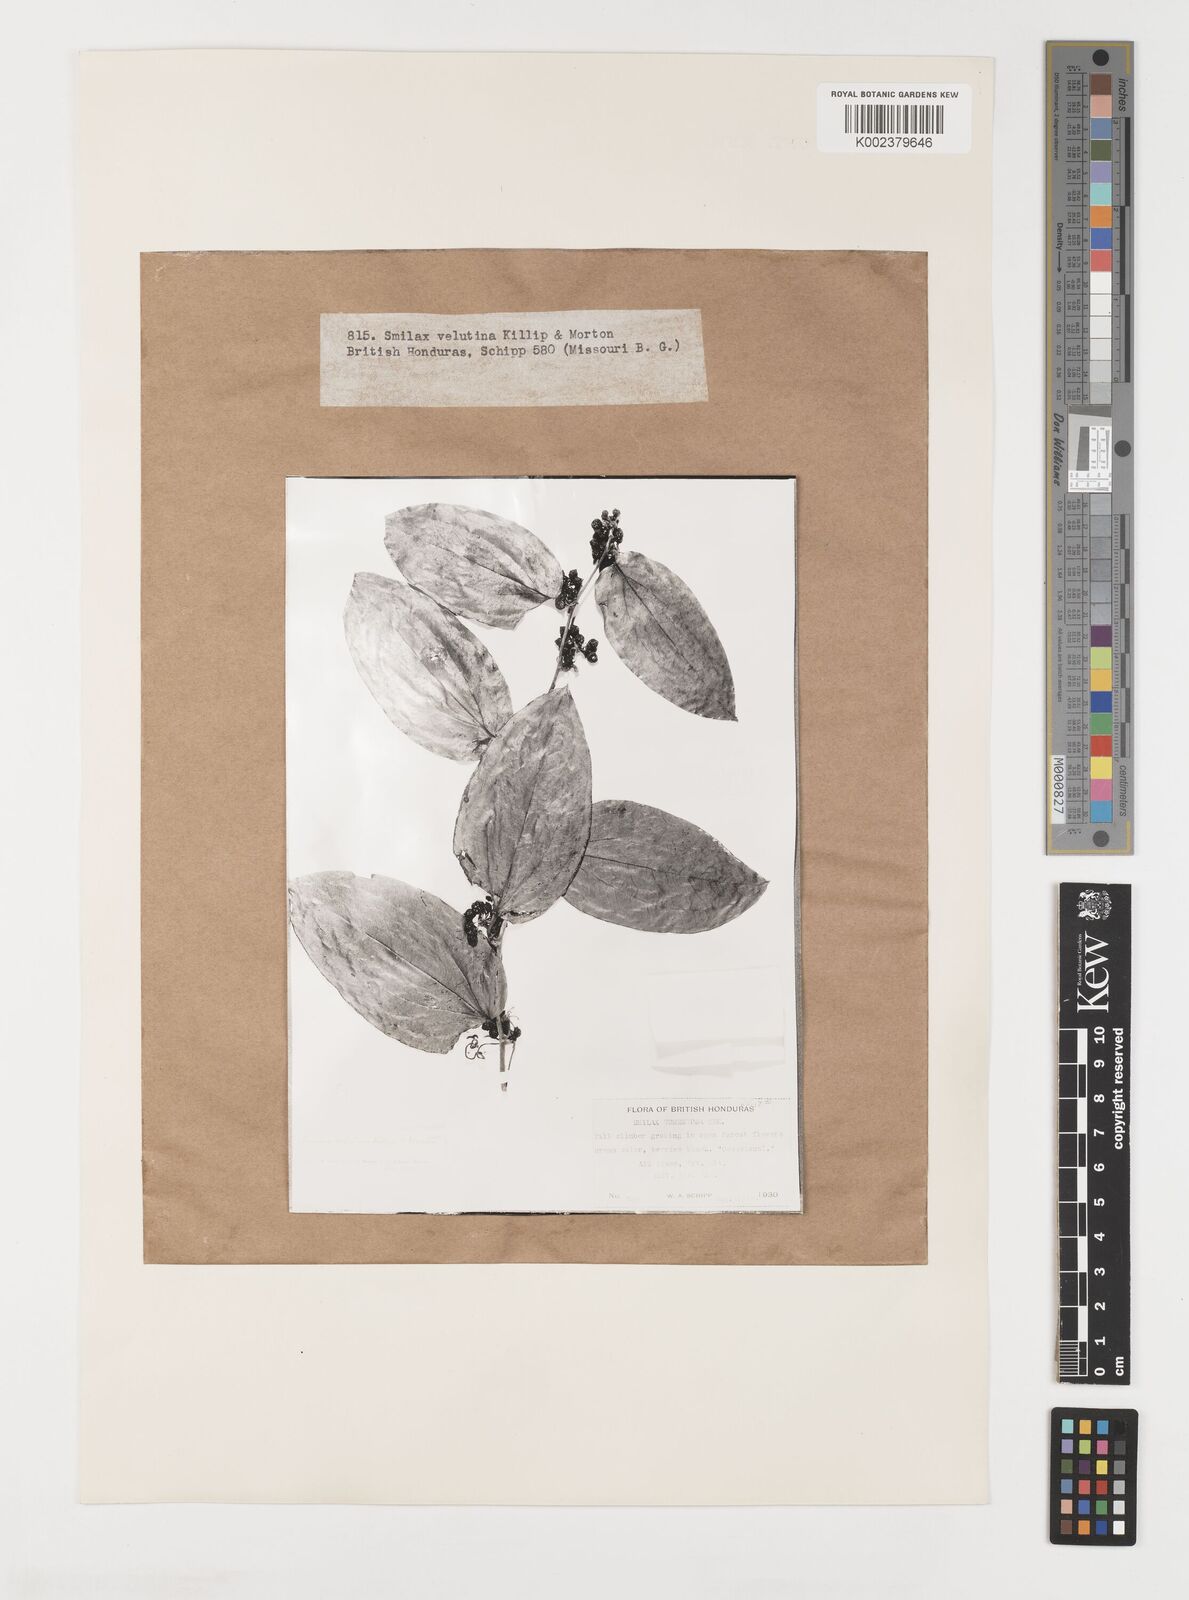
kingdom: Plantae
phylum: Tracheophyta
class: Liliopsida
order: Liliales
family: Smilacaceae
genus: Smilax
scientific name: Smilax velutina
